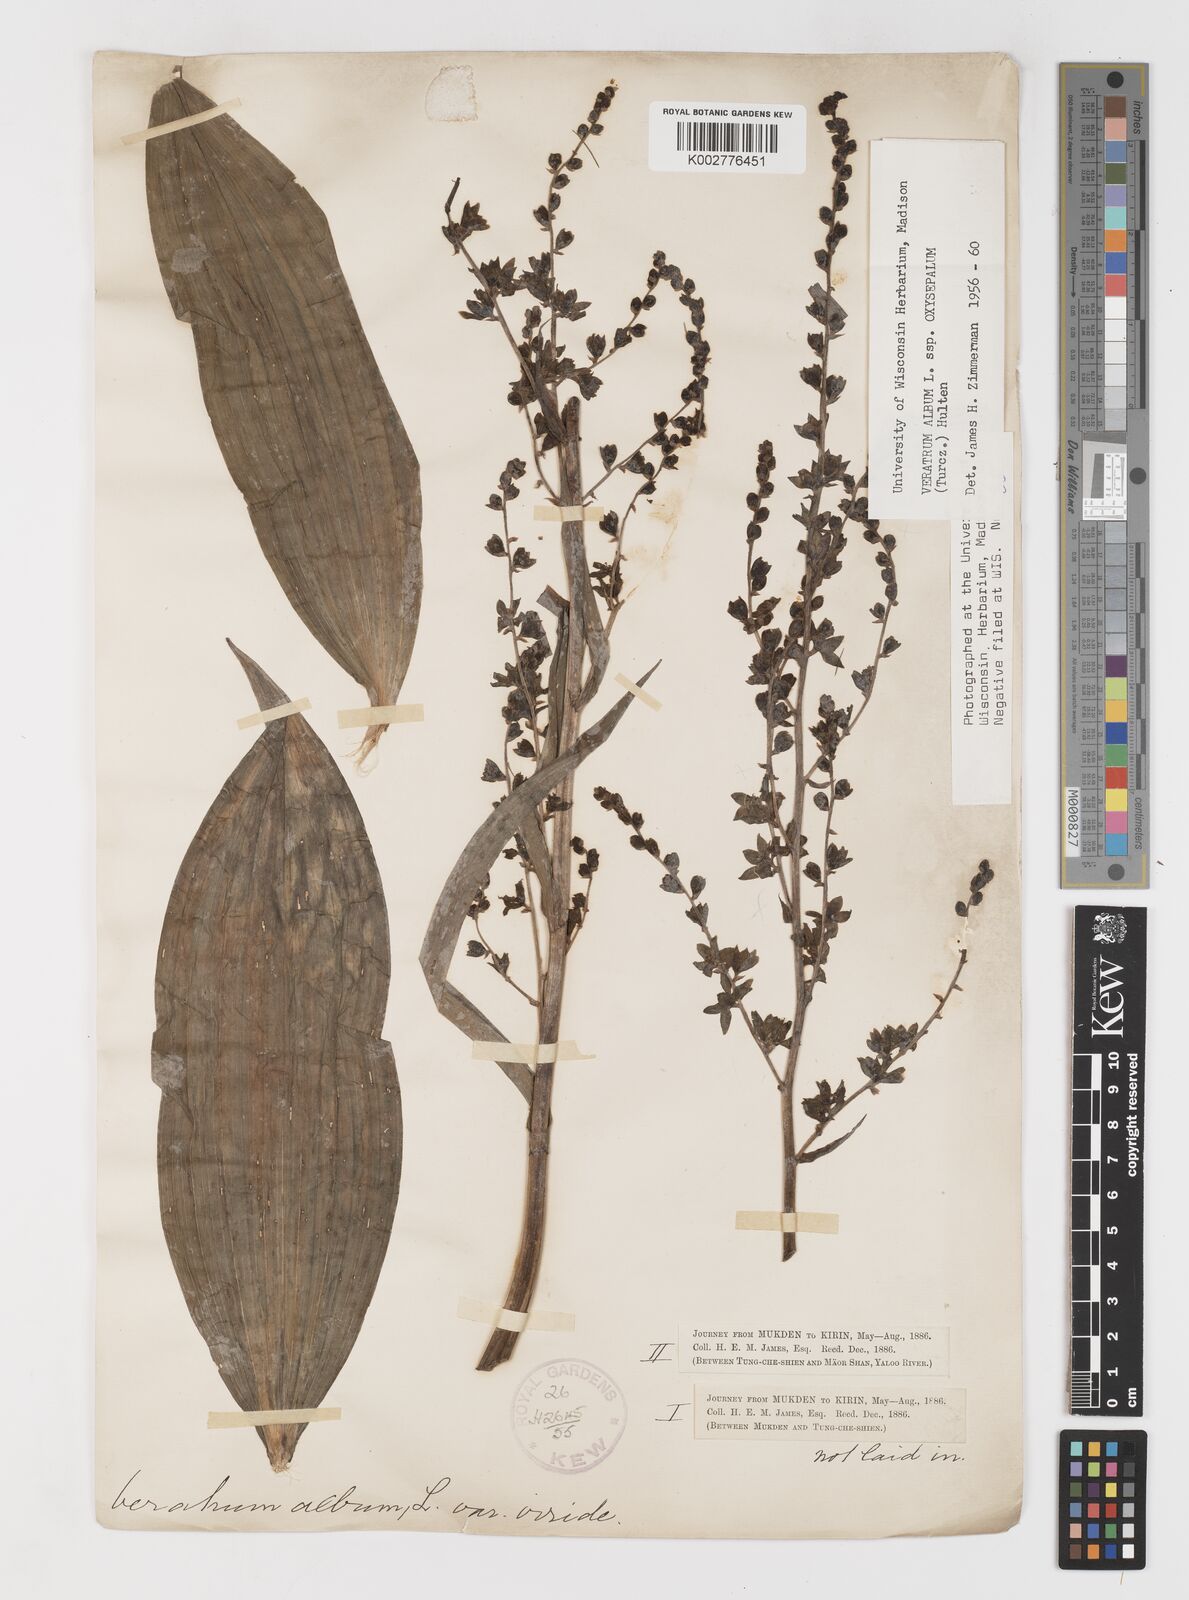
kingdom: Plantae
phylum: Tracheophyta
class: Liliopsida
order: Liliales
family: Melanthiaceae
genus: Veratrum
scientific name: Veratrum album
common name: White veratrum
